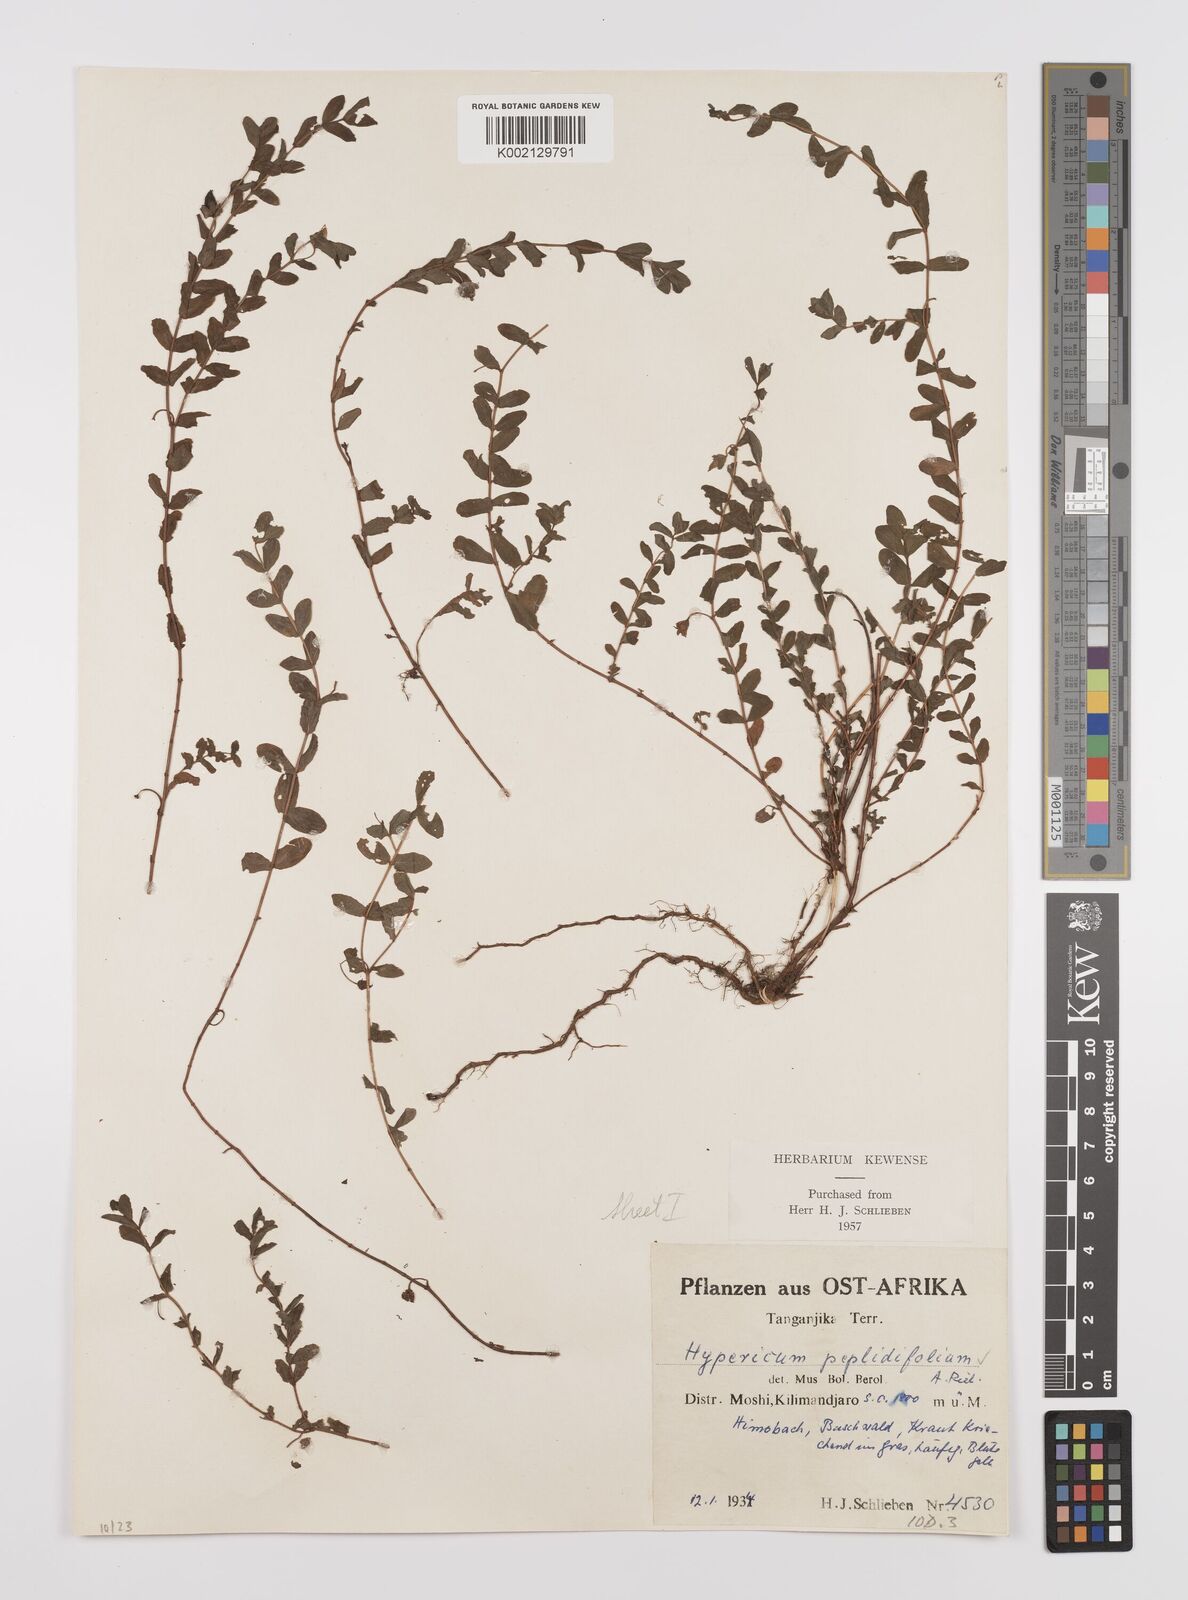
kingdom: Plantae
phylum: Tracheophyta
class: Magnoliopsida
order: Malpighiales
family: Hypericaceae
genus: Hypericum
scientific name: Hypericum peplidifolium
